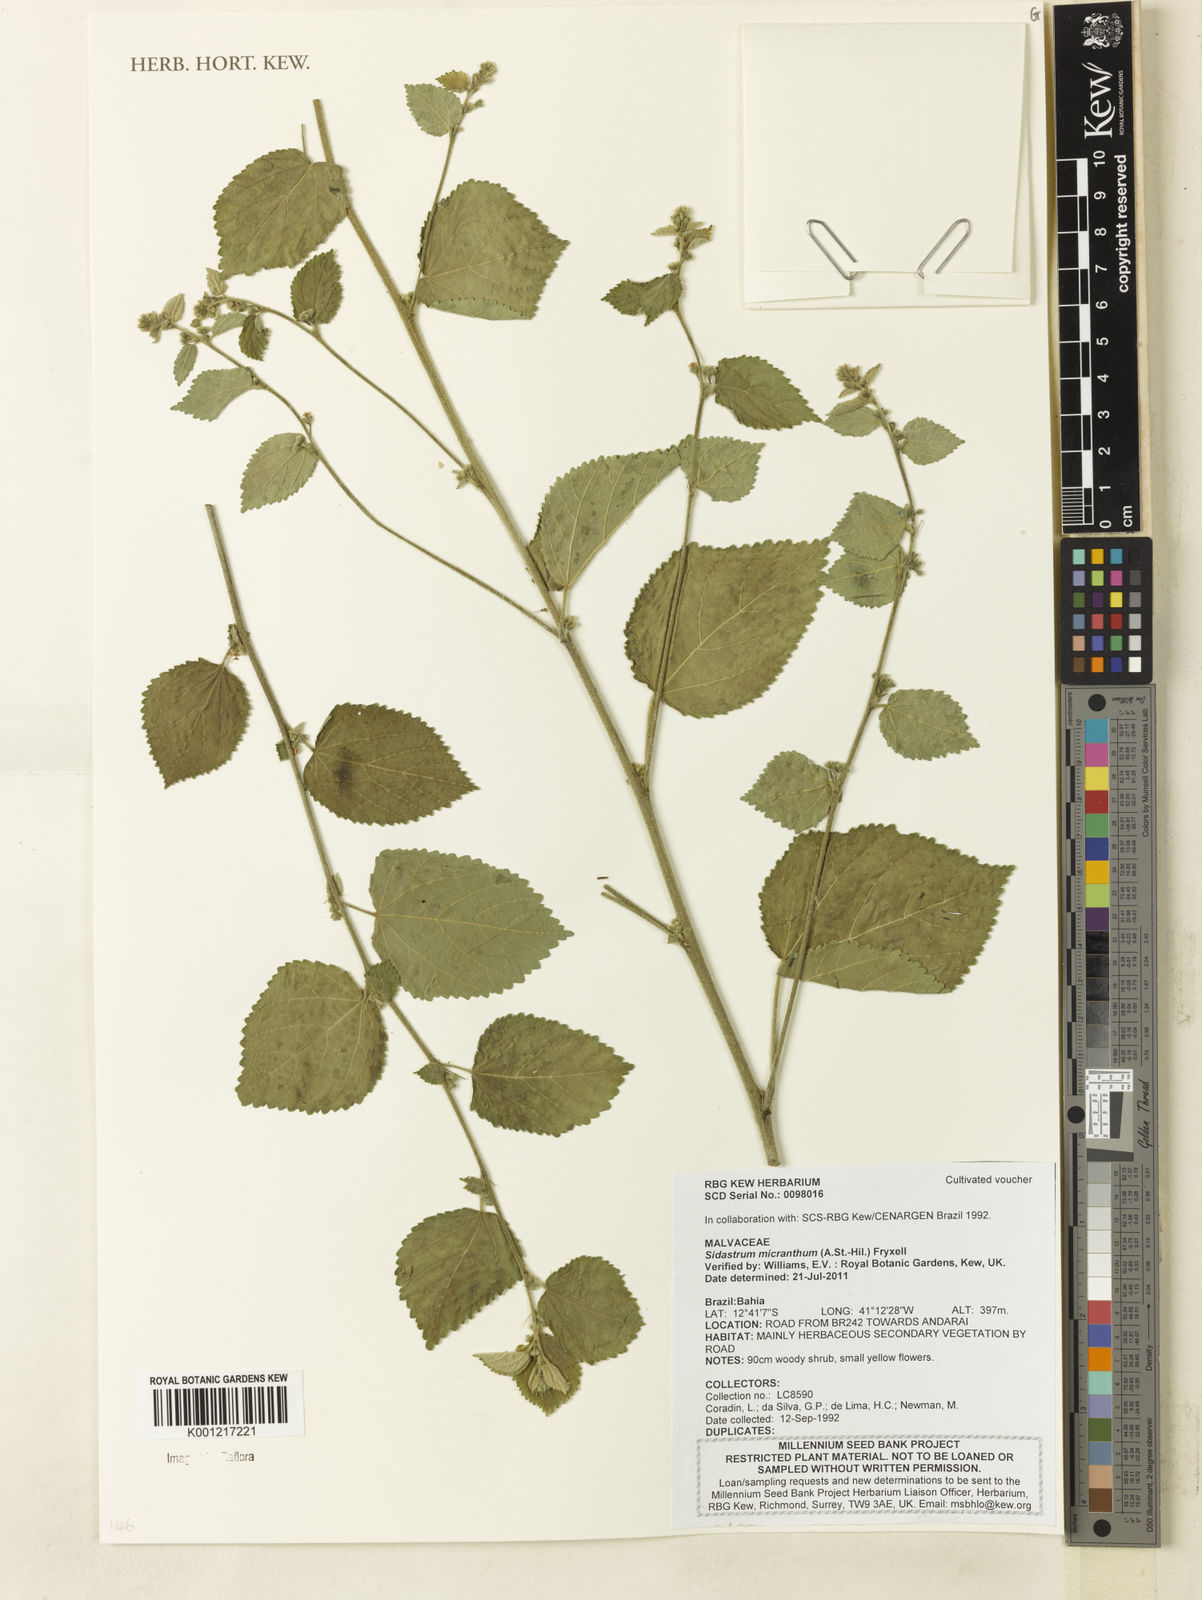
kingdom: Plantae
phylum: Tracheophyta
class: Magnoliopsida
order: Malvales
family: Malvaceae
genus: Sidastrum
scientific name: Sidastrum micranthum
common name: Dainty sandmallow
